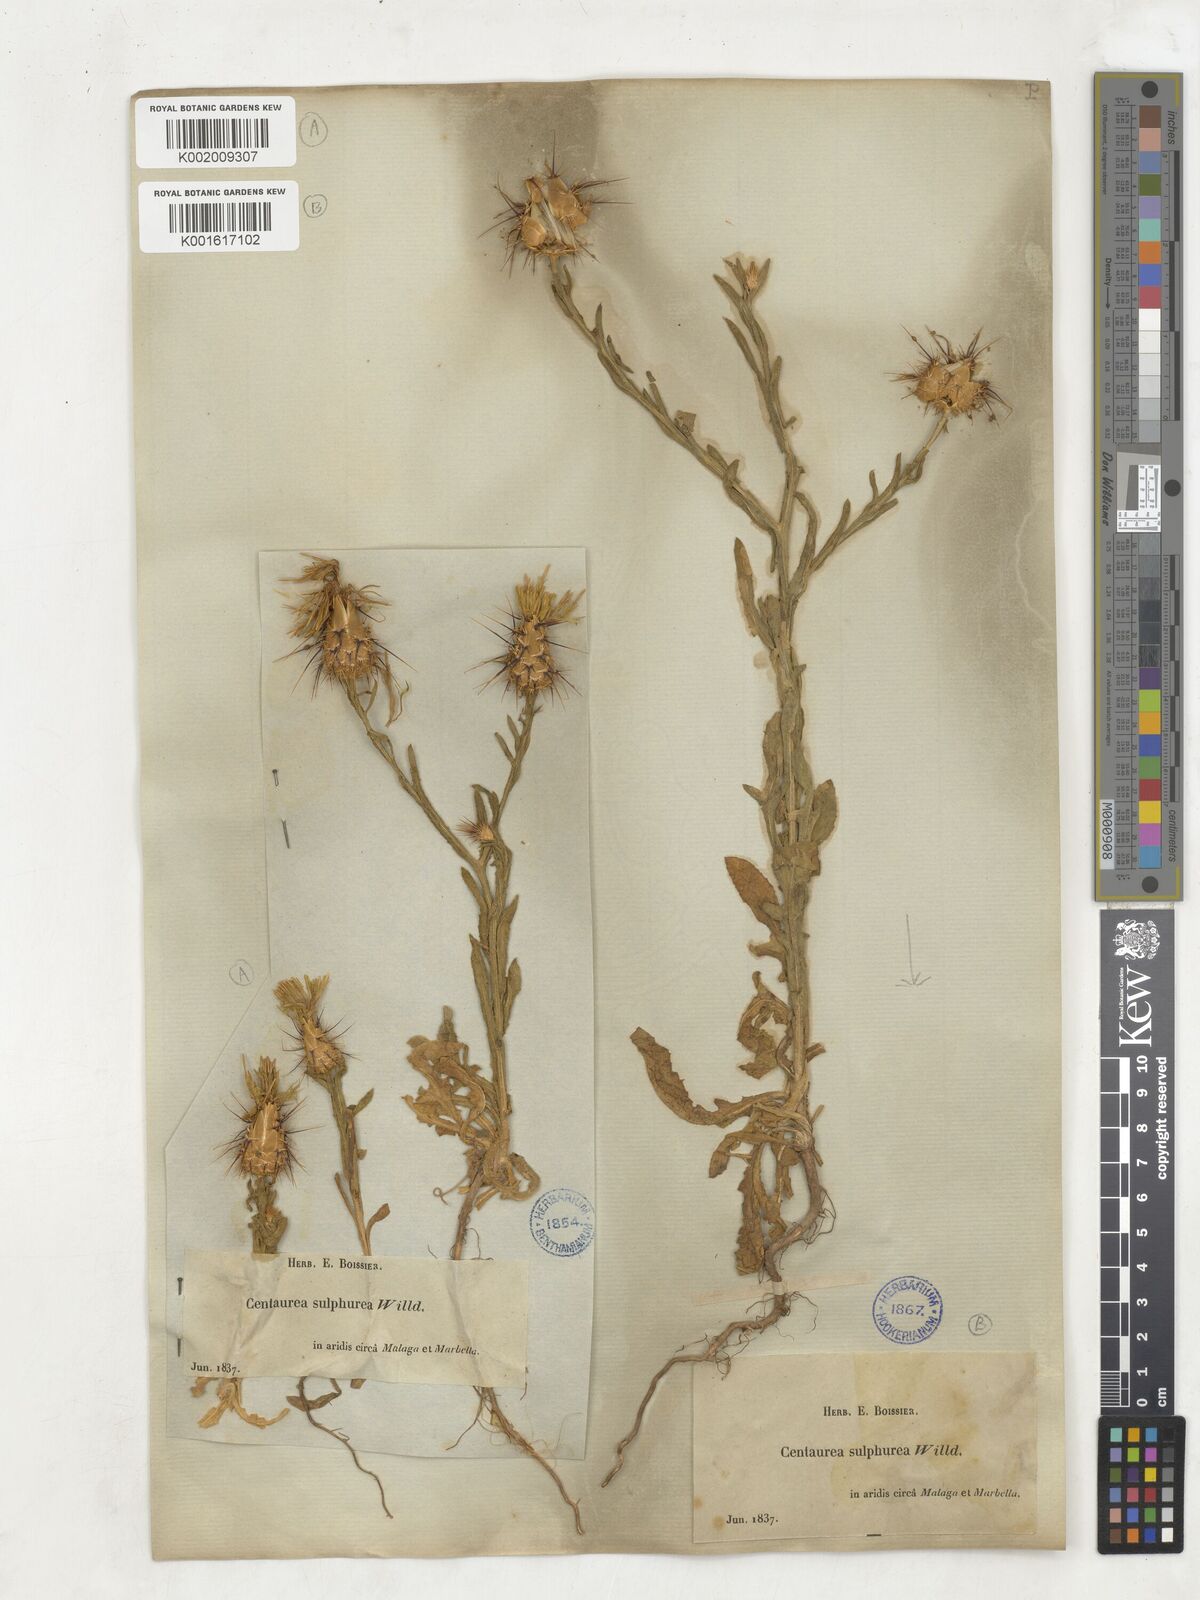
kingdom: Plantae
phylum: Tracheophyta
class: Magnoliopsida
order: Asterales
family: Asteraceae
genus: Centaurea
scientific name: Centaurea sulphurea
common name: Sulphur knapweed
